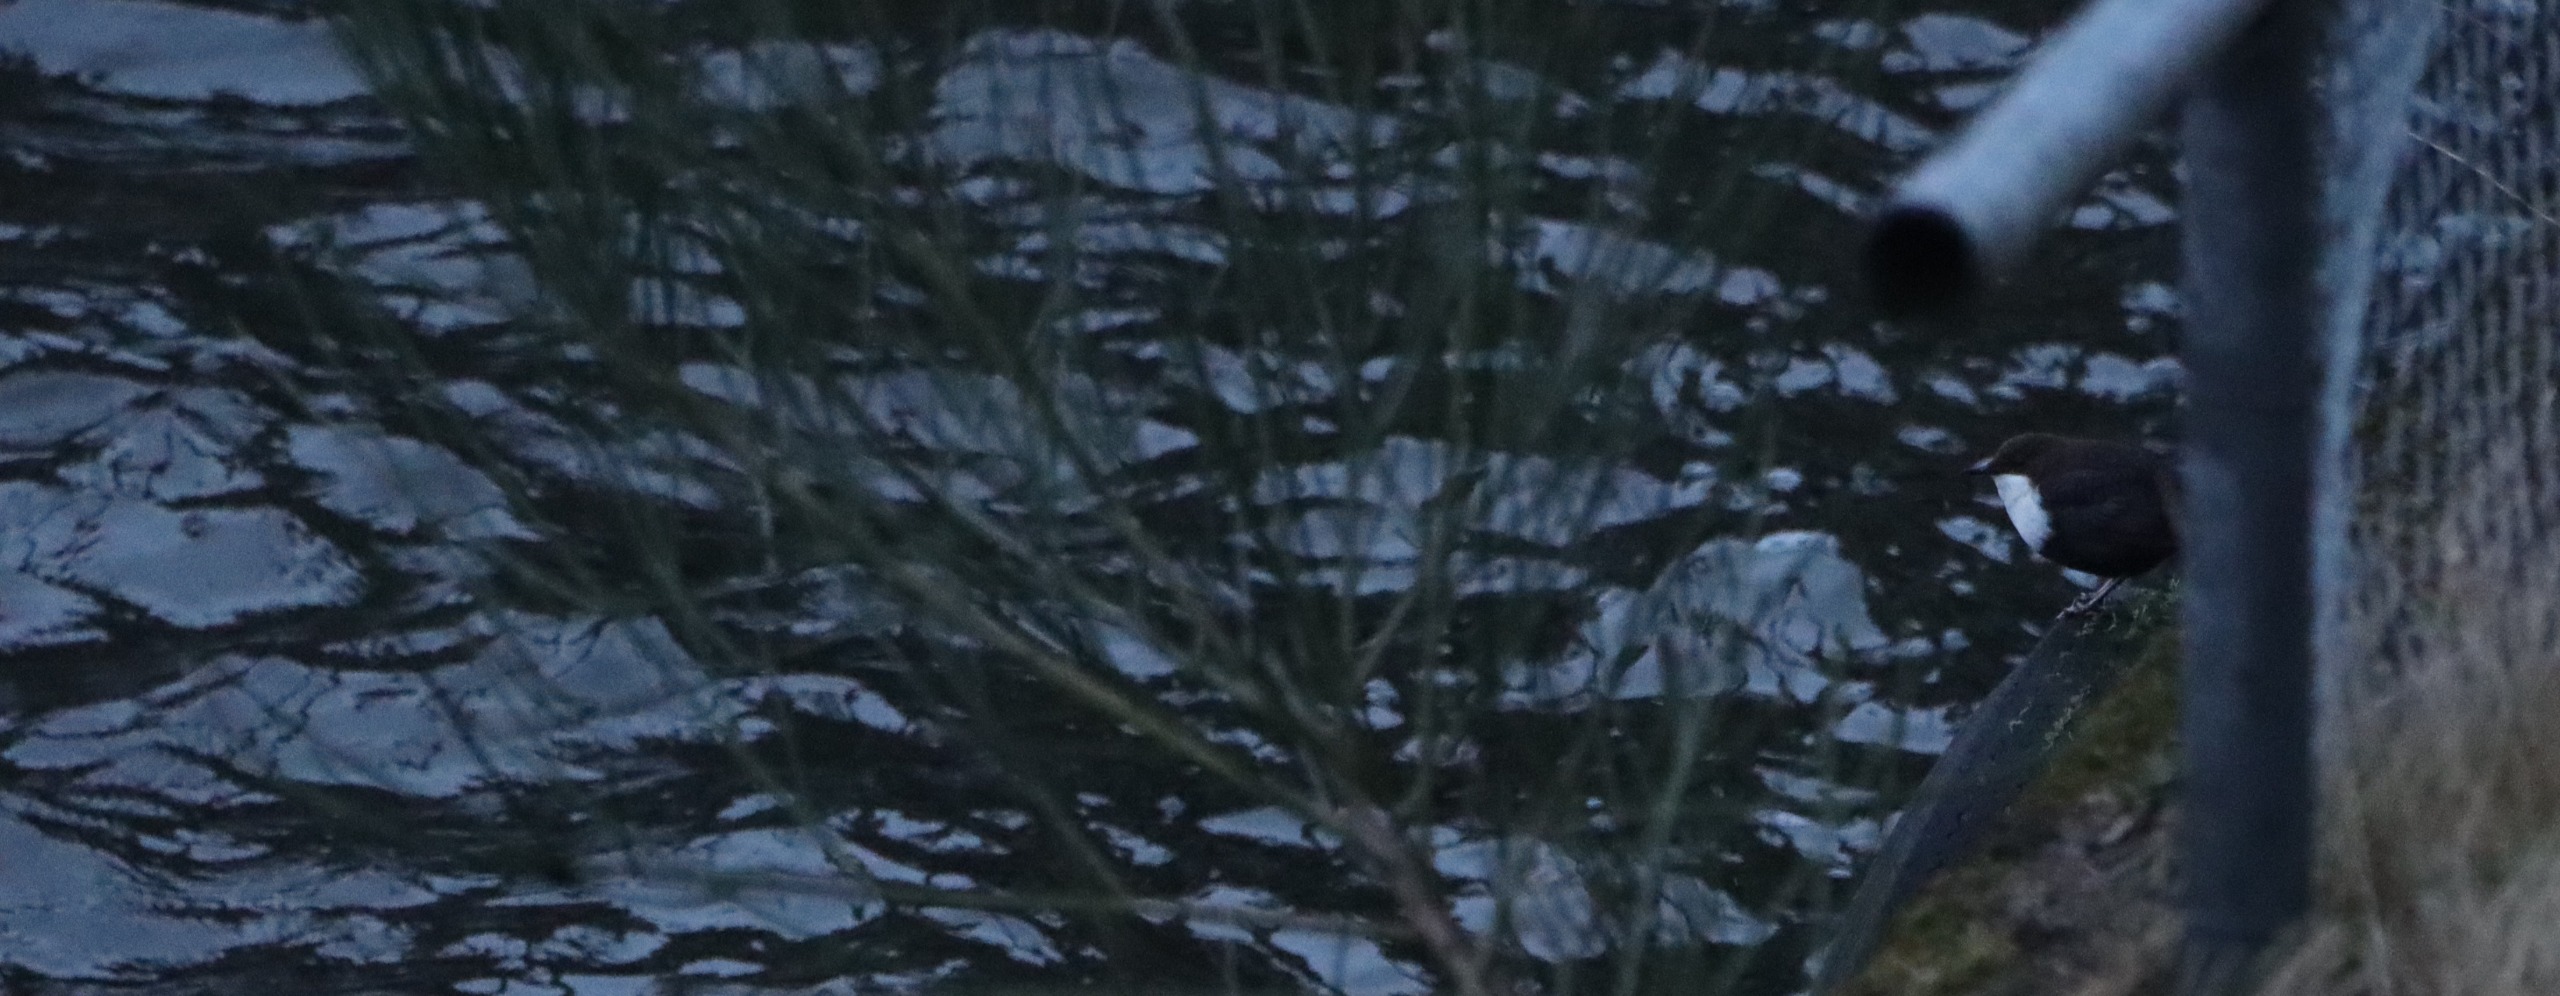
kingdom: Animalia
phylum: Chordata
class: Aves
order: Passeriformes
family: Cinclidae
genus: Cinclus
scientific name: Cinclus cinclus
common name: Vandstær
